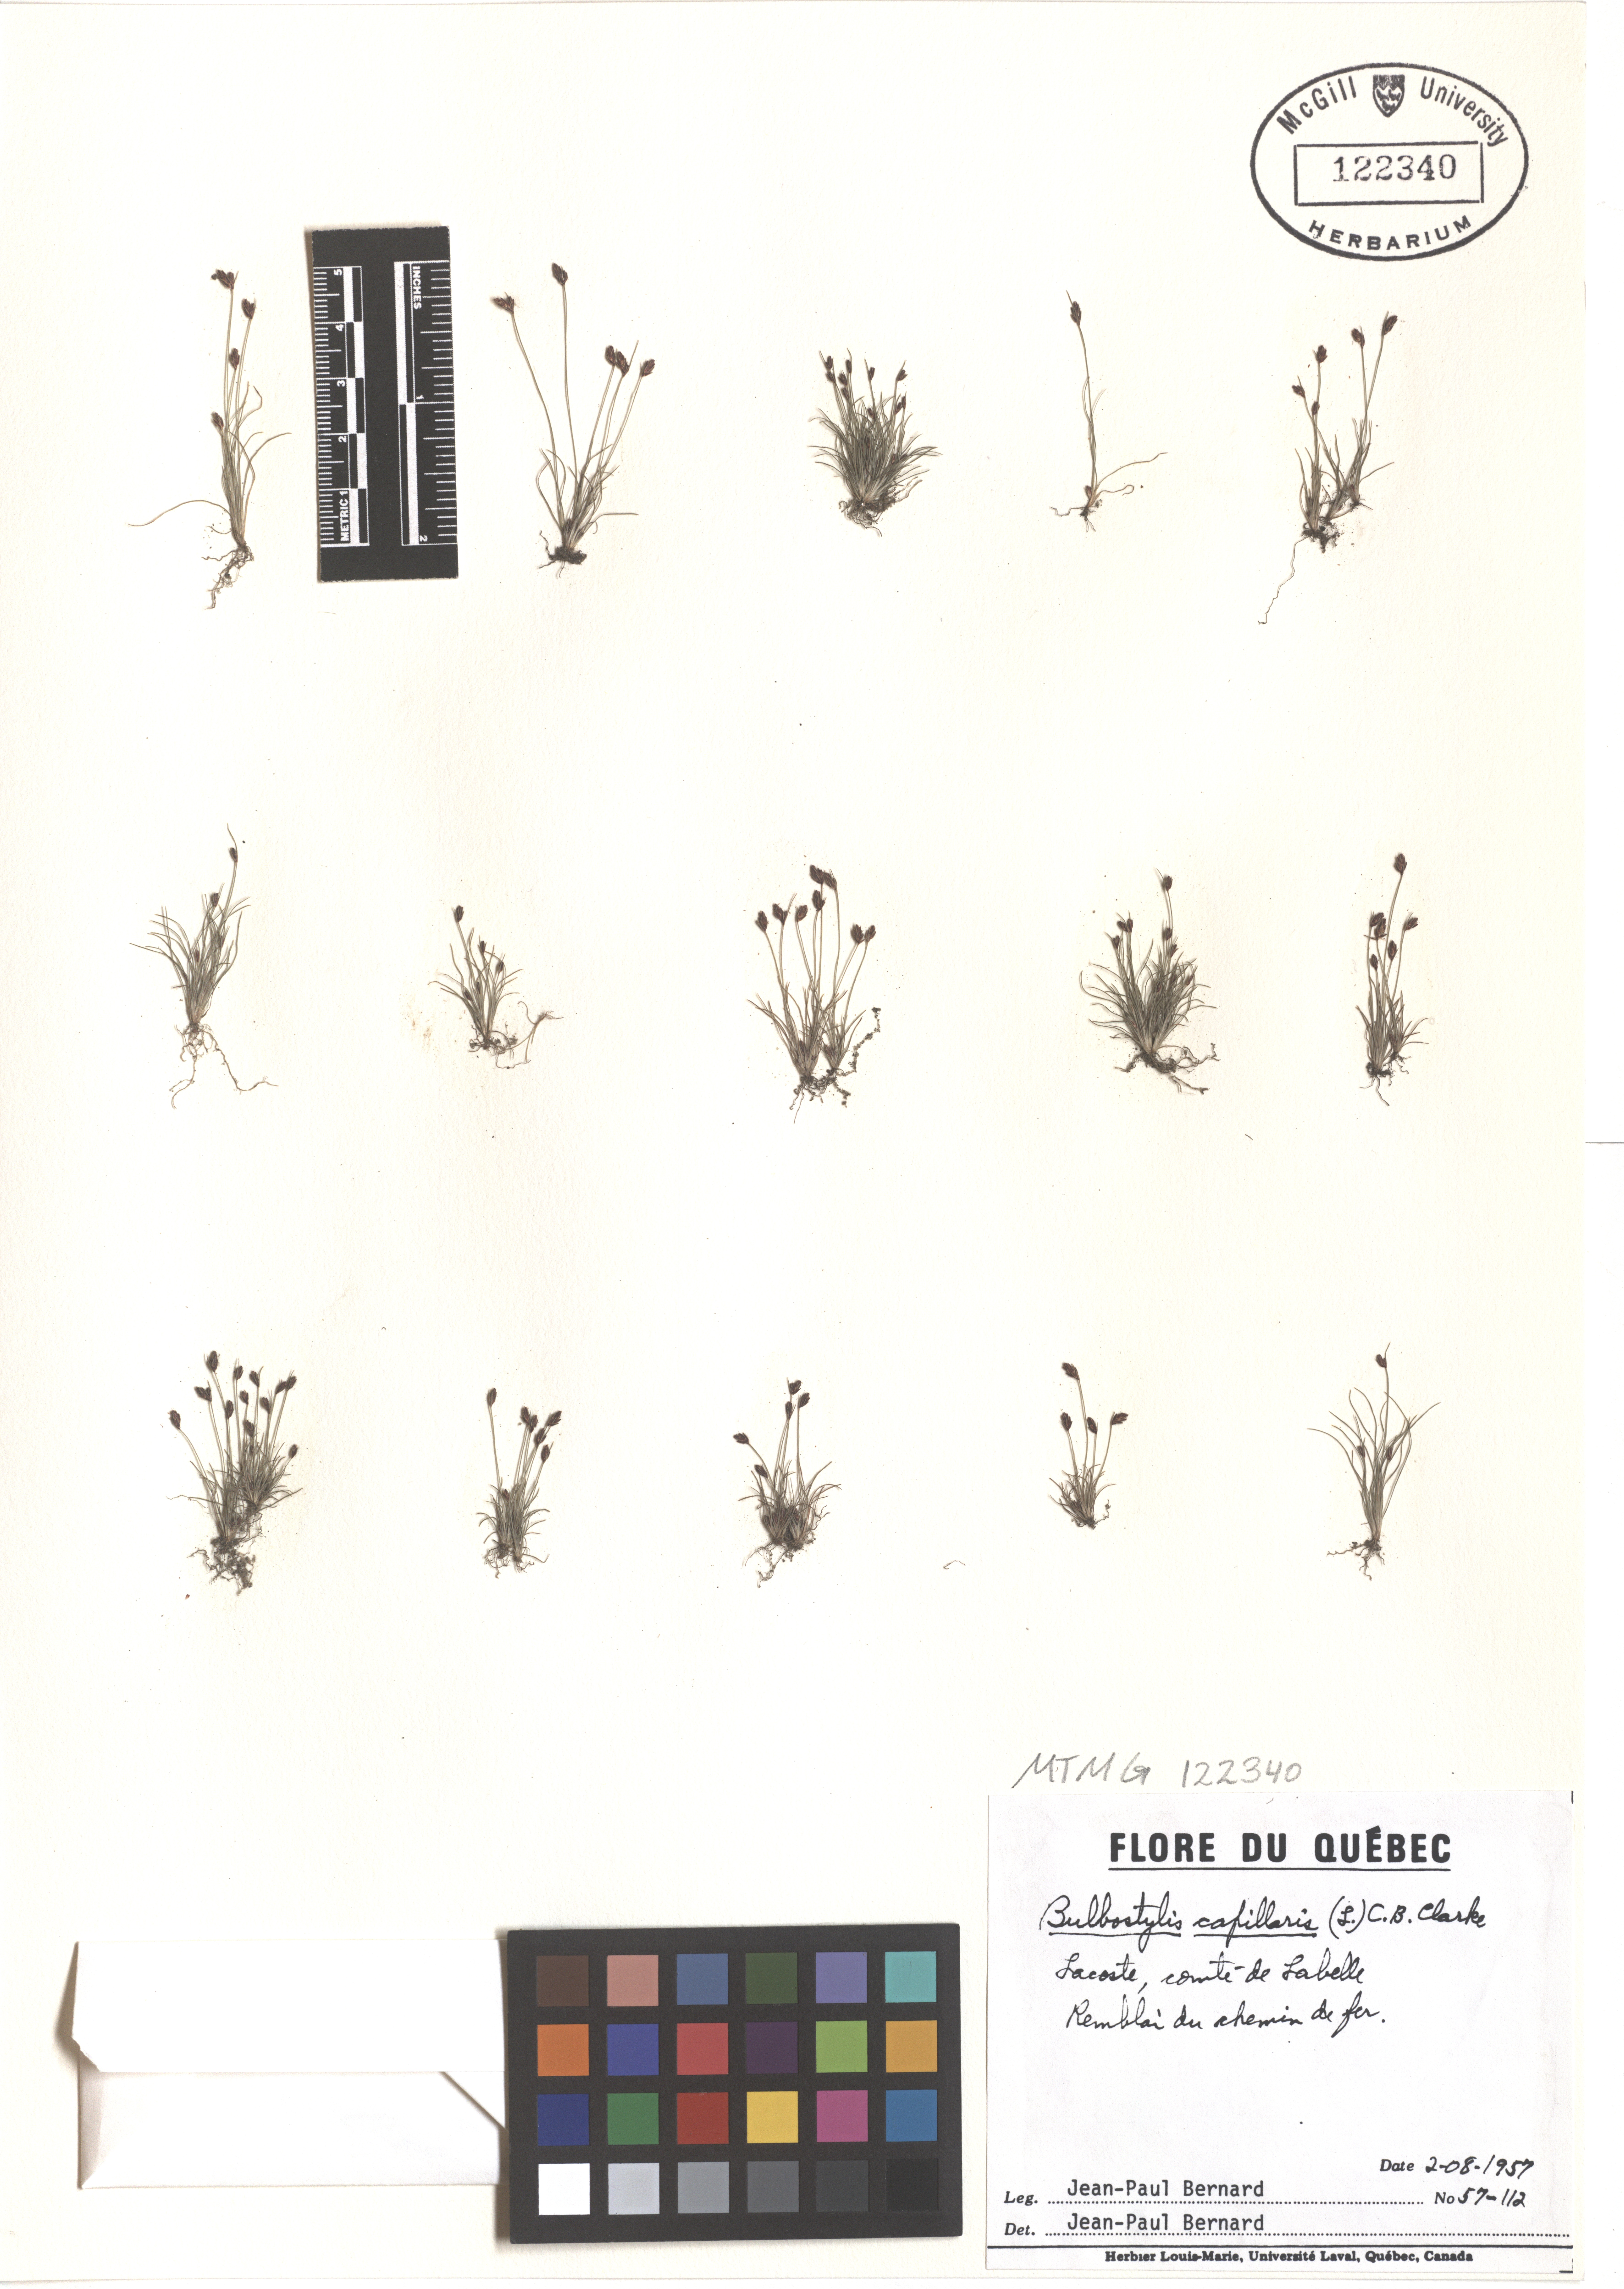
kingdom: Plantae
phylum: Tracheophyta
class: Liliopsida
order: Poales
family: Cyperaceae
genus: Bulbostylis
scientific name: Bulbostylis capillaris
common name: Densetuft hairsedge
